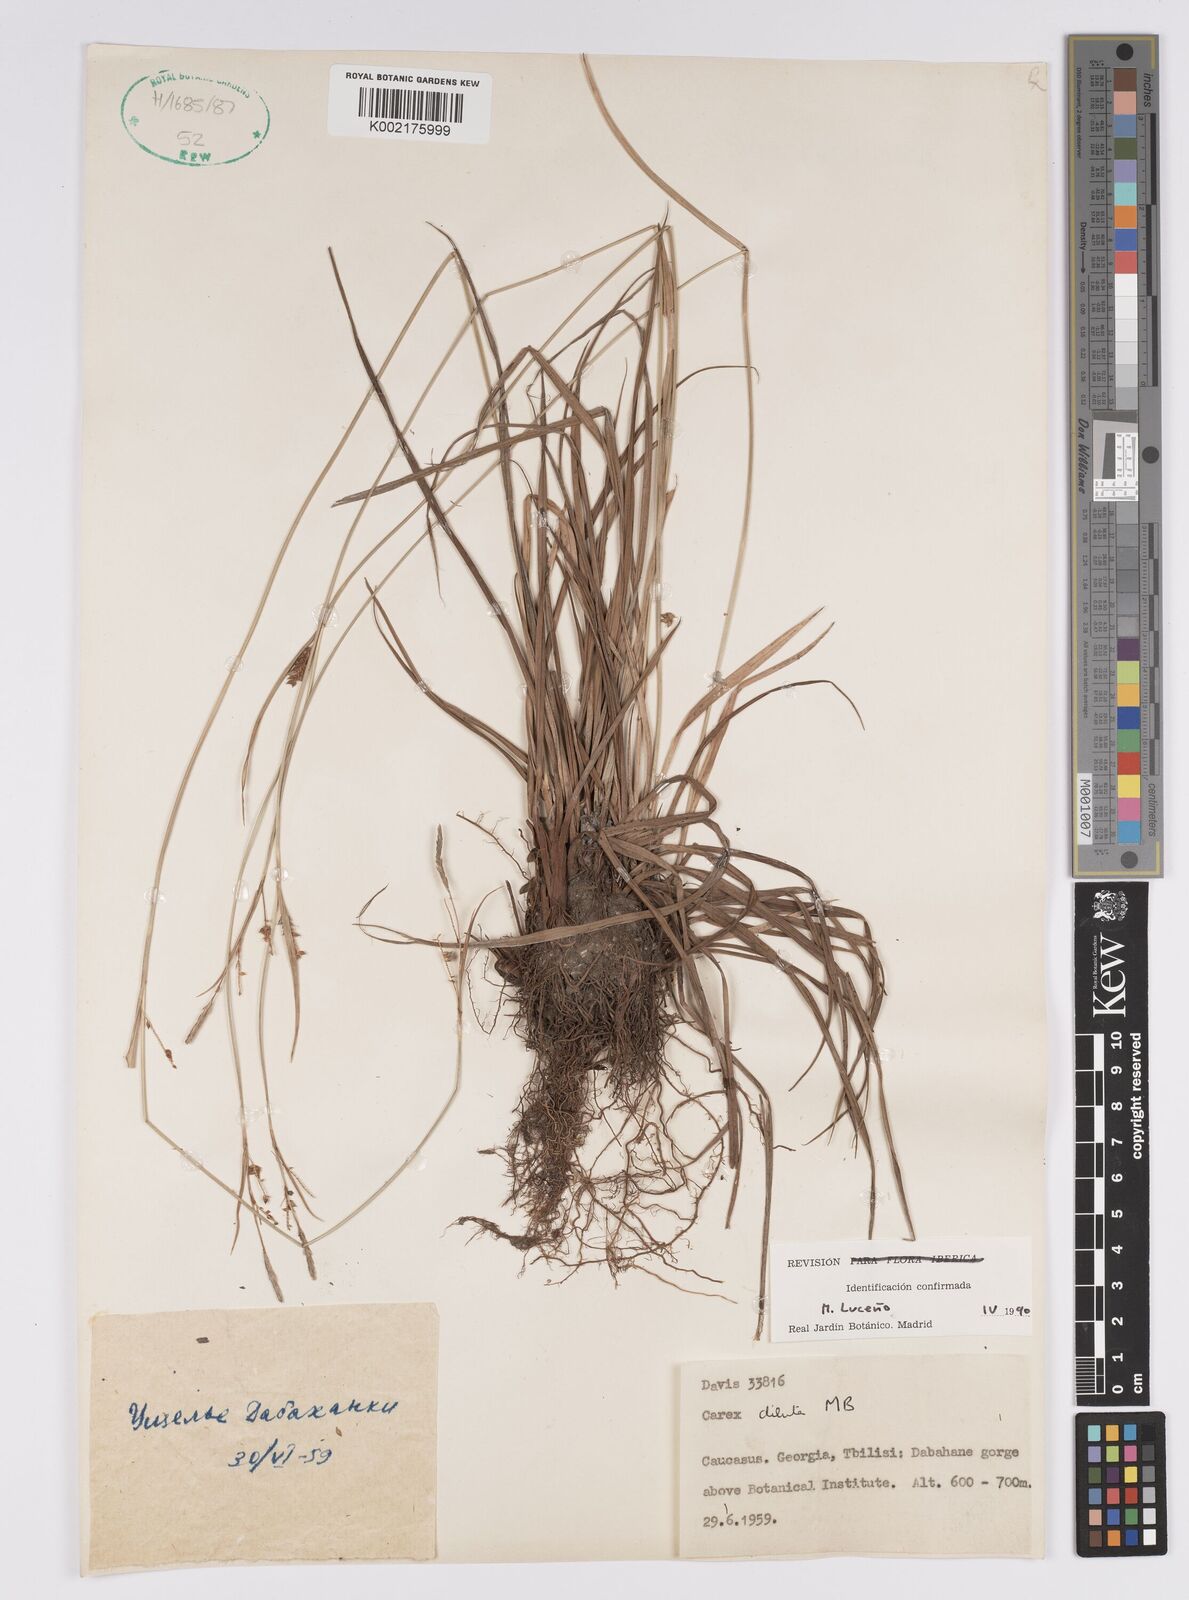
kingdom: Plantae
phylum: Tracheophyta
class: Liliopsida
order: Poales
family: Cyperaceae
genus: Carex
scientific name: Carex diluta
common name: Sedge
